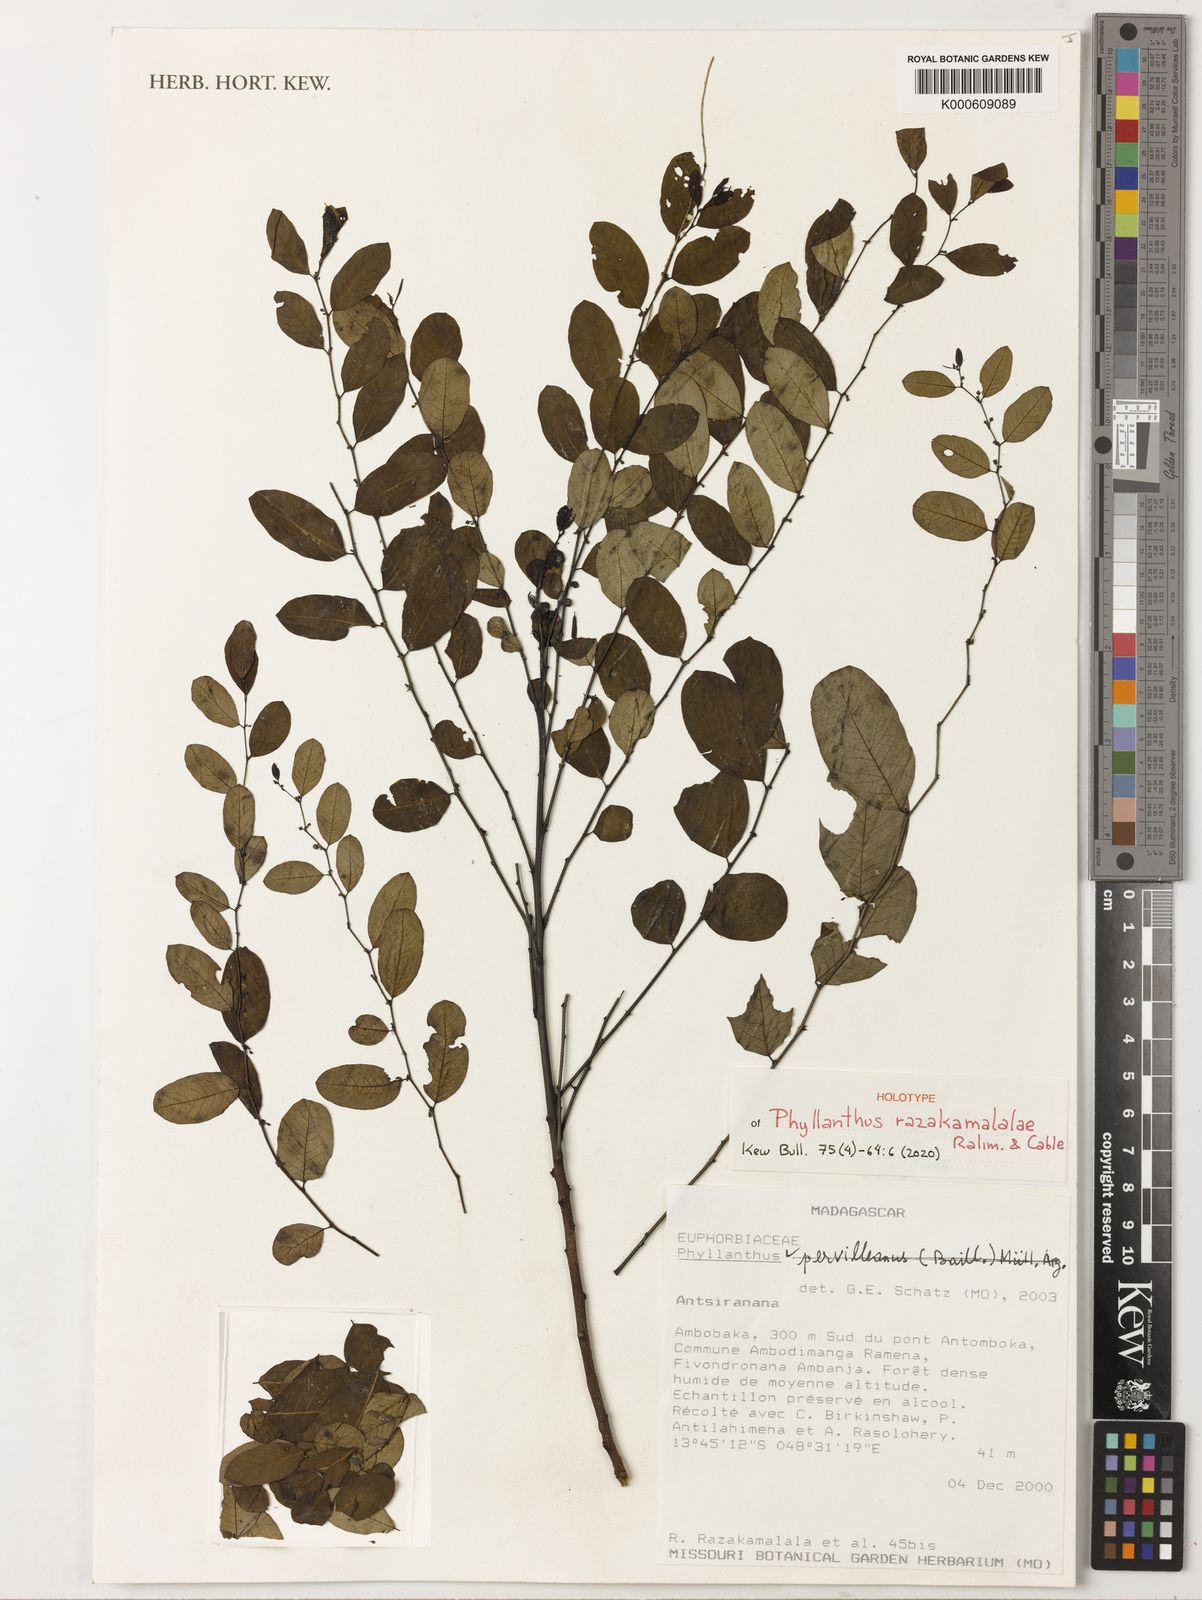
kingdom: Plantae
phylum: Tracheophyta
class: Magnoliopsida
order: Malpighiales
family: Phyllanthaceae
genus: Phyllanthus
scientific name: Phyllanthus
